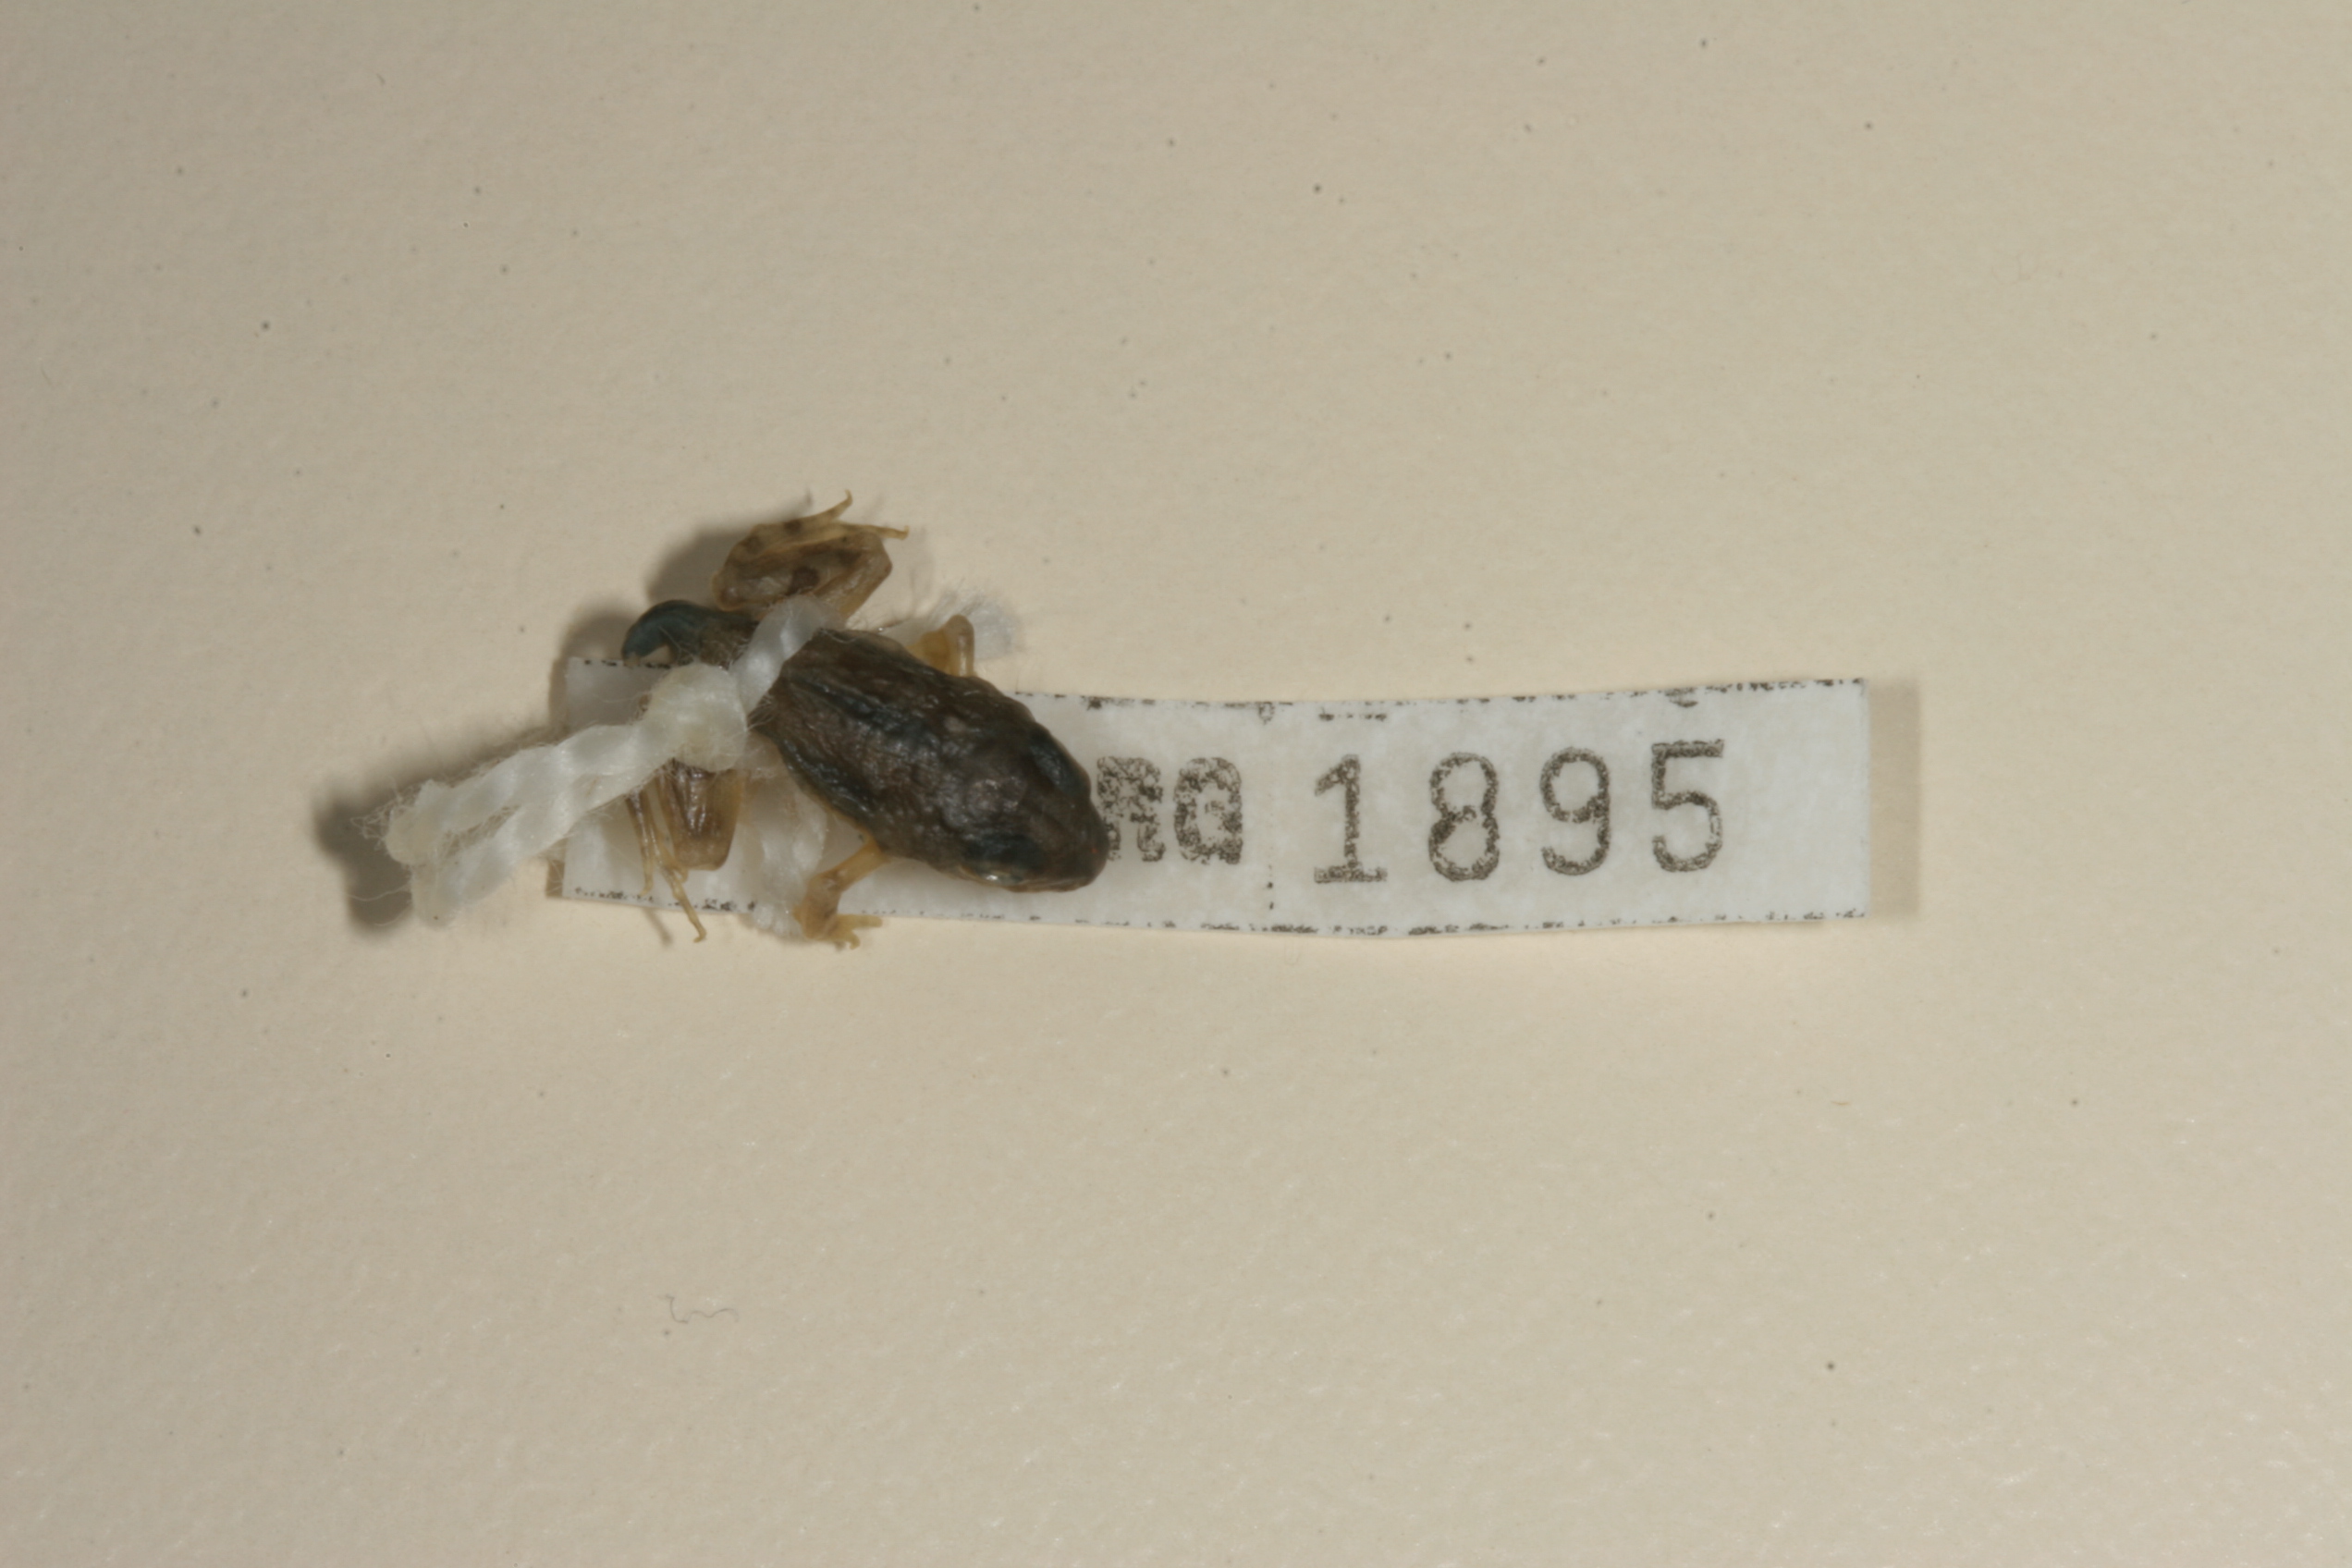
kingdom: Animalia
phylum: Chordata
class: Amphibia
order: Anura
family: Pyxicephalidae
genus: Tomopterna
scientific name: Tomopterna cryptotis
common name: Catequero bullfrog
